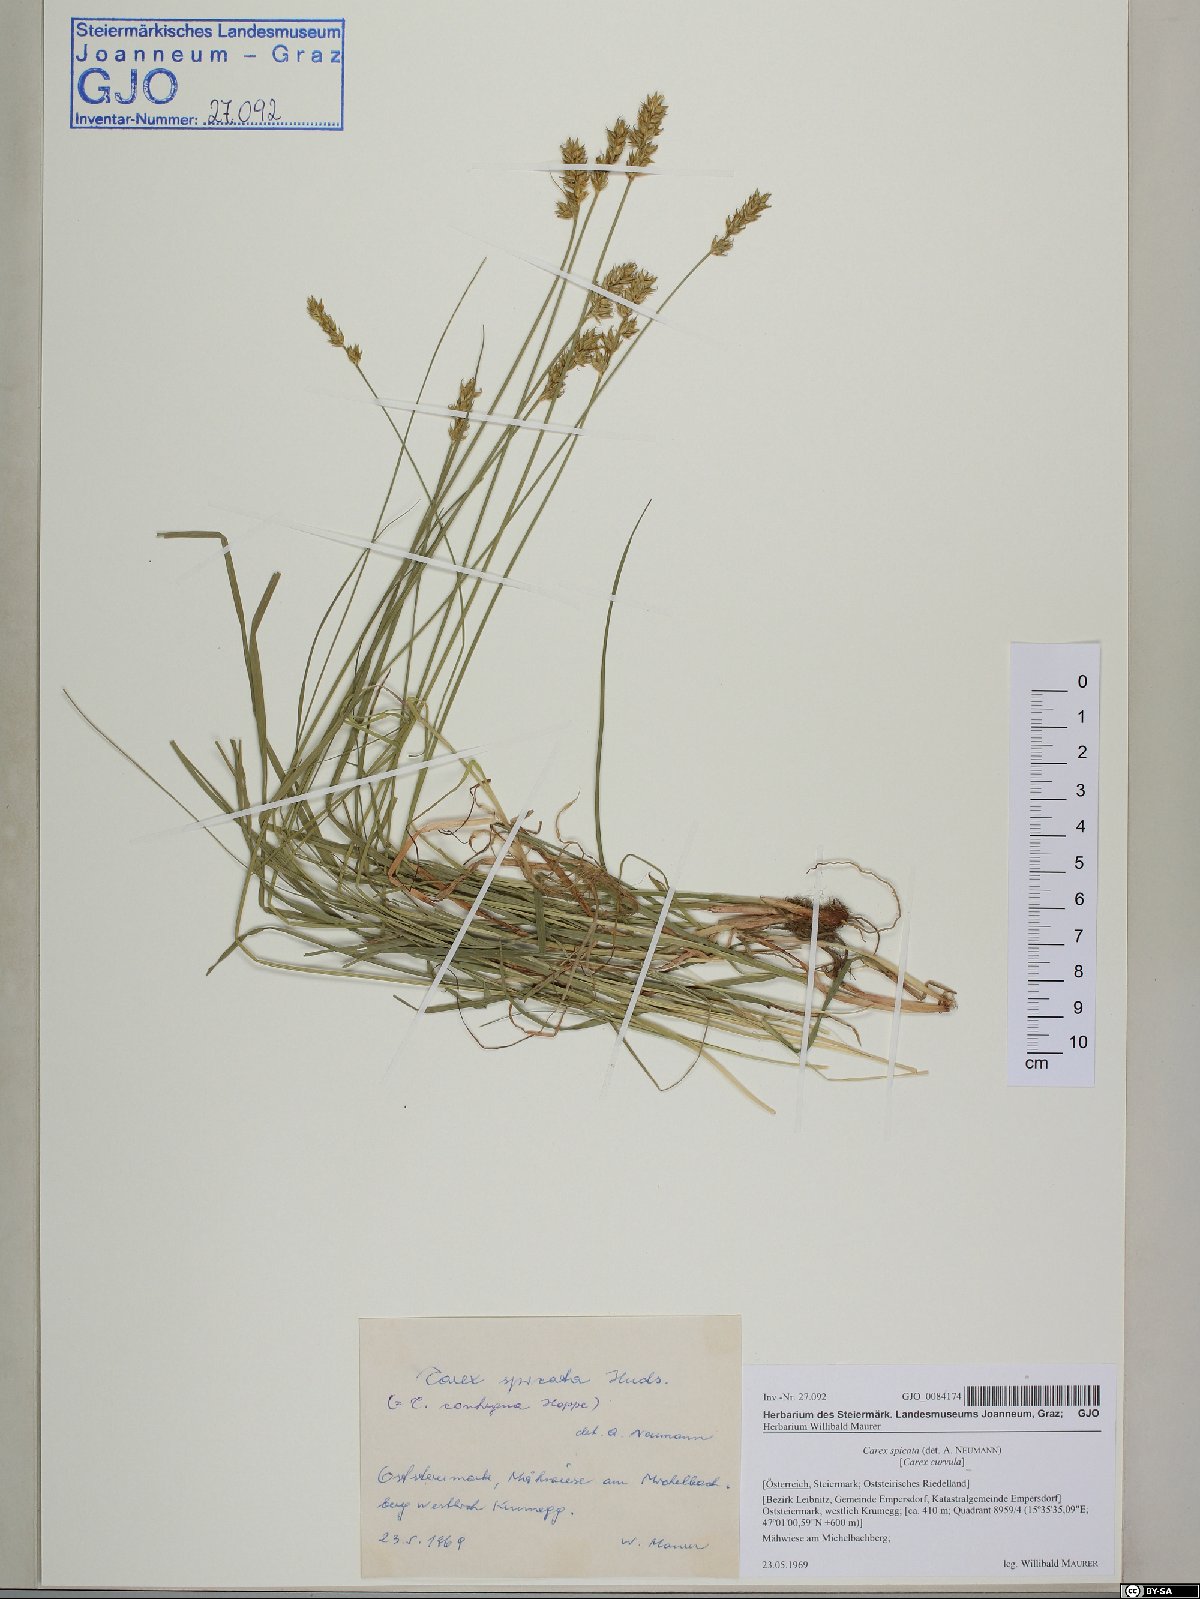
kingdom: Plantae
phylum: Tracheophyta
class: Liliopsida
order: Poales
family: Cyperaceae
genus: Carex
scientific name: Carex spicata
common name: Spiked sedge
